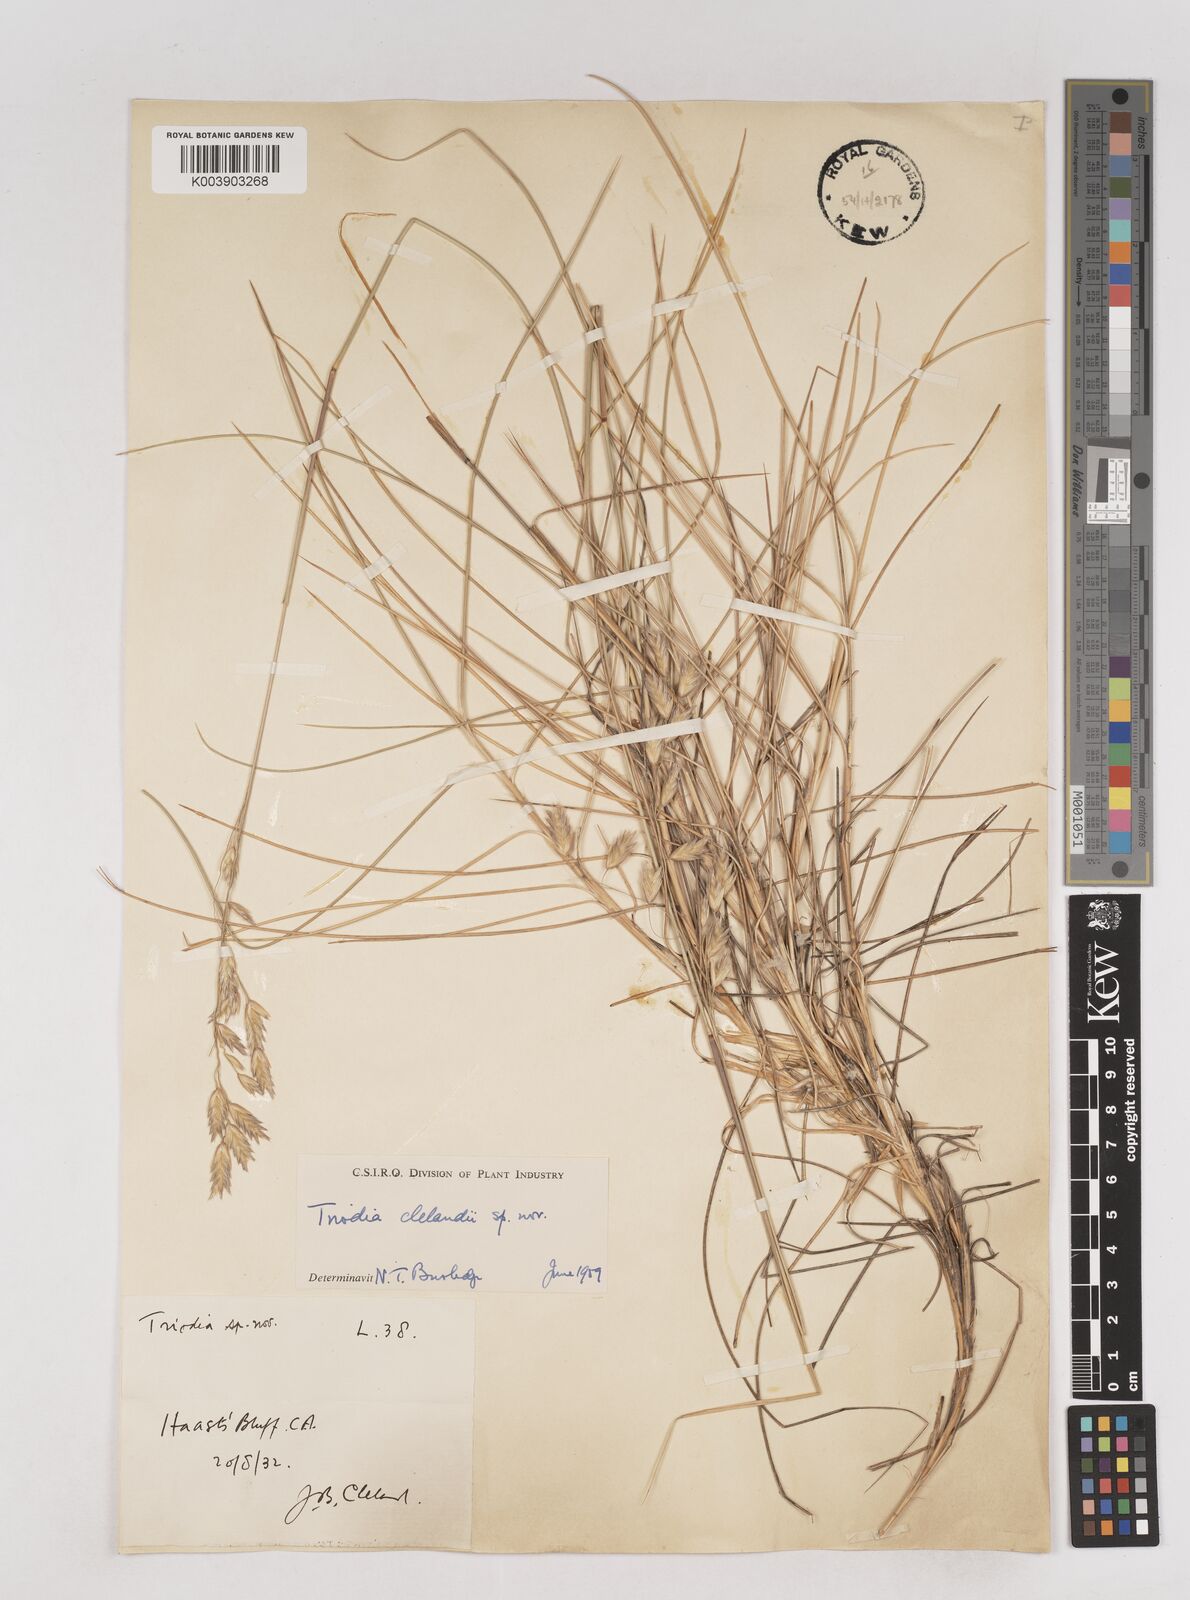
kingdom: Plantae
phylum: Tracheophyta
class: Liliopsida
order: Poales
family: Poaceae
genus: Triodia
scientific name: Triodia brizoides
